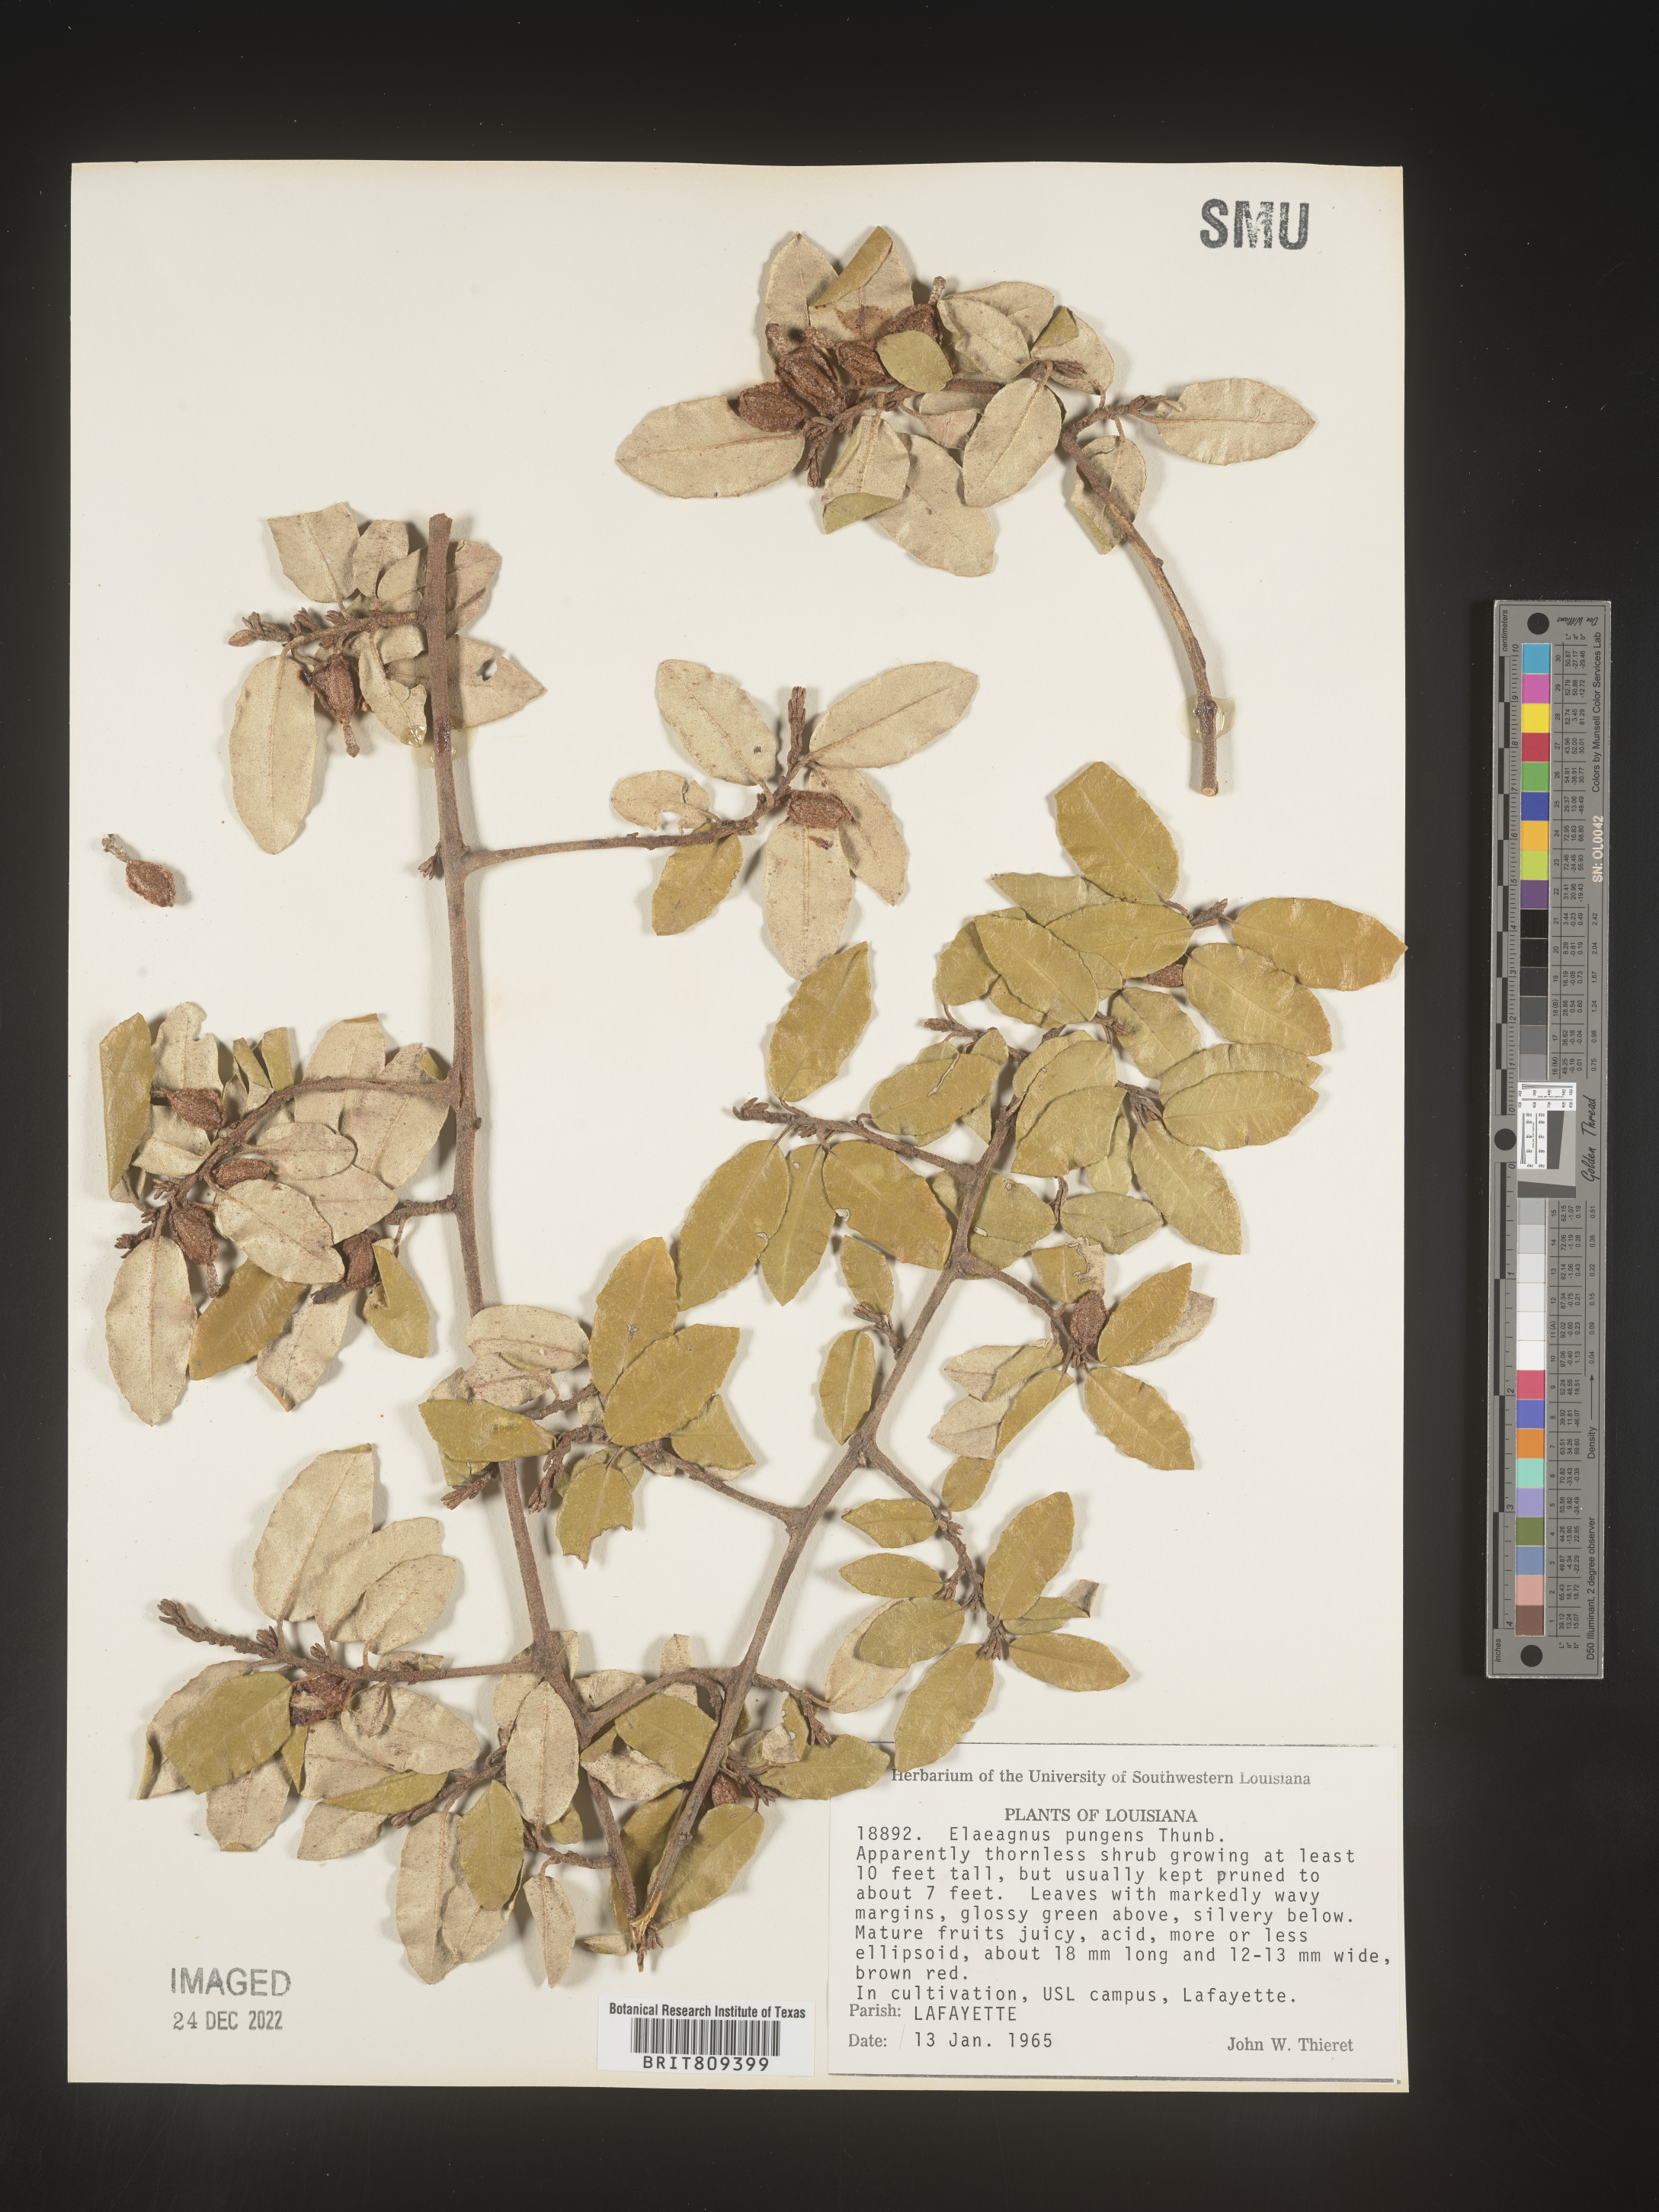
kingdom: Plantae
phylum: Tracheophyta
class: Magnoliopsida
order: Rosales
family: Elaeagnaceae
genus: Elaeagnus
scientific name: Elaeagnus
